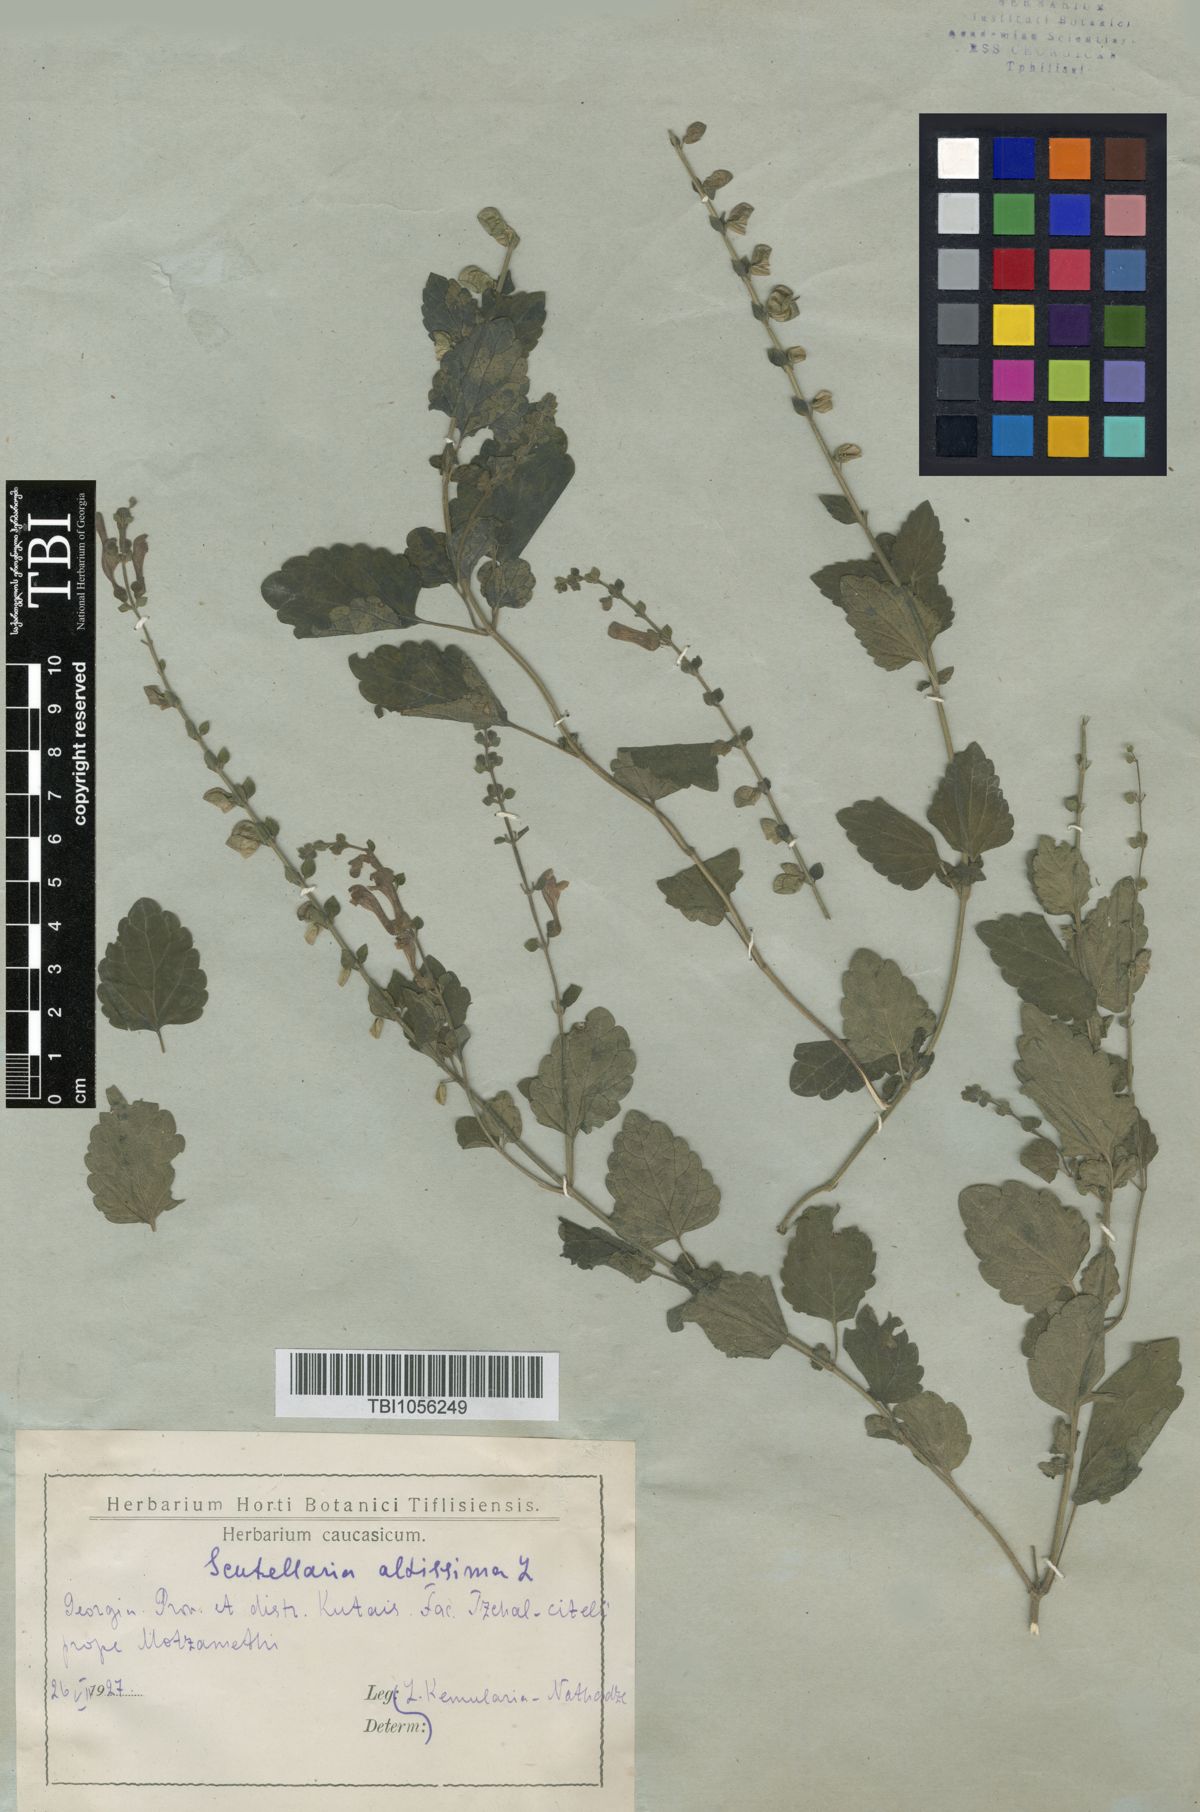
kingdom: Plantae
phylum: Tracheophyta
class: Magnoliopsida
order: Lamiales
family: Lamiaceae
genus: Scutellaria
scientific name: Scutellaria altissima
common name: Somerset skullcap
